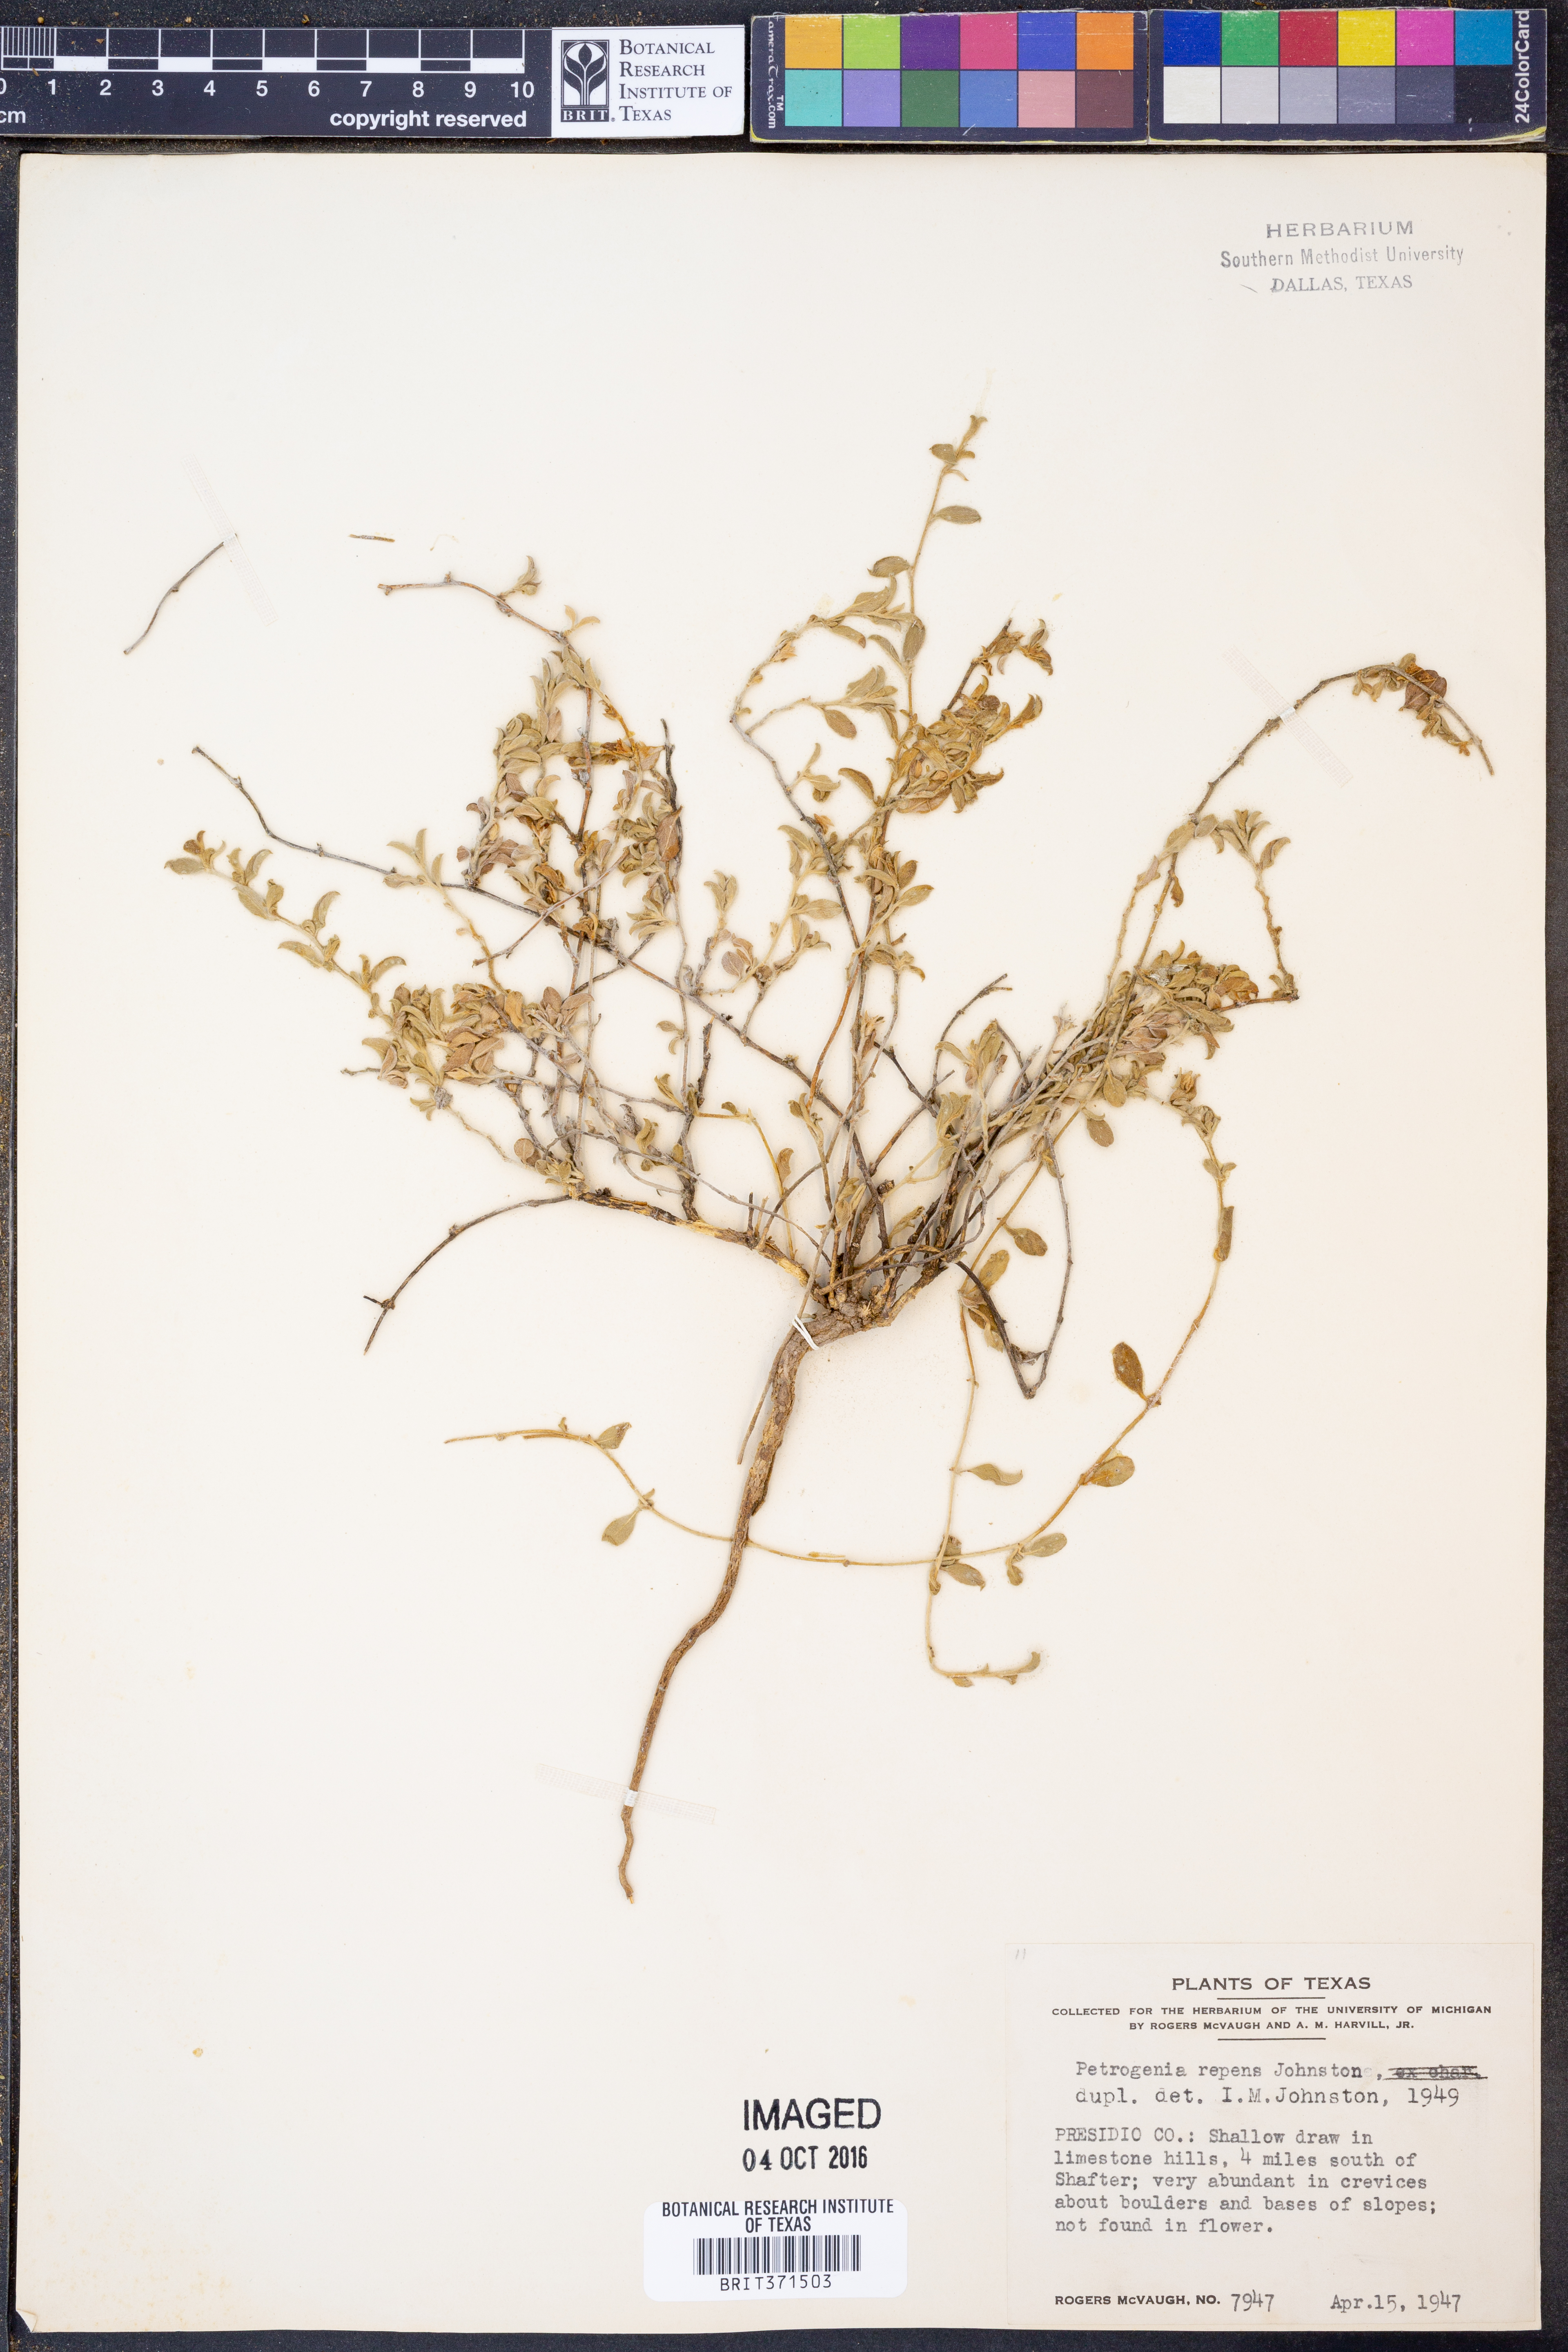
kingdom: Plantae
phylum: Tracheophyta
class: Magnoliopsida
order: Solanales
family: Convolvulaceae
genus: Bonamia
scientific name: Bonamia repens
